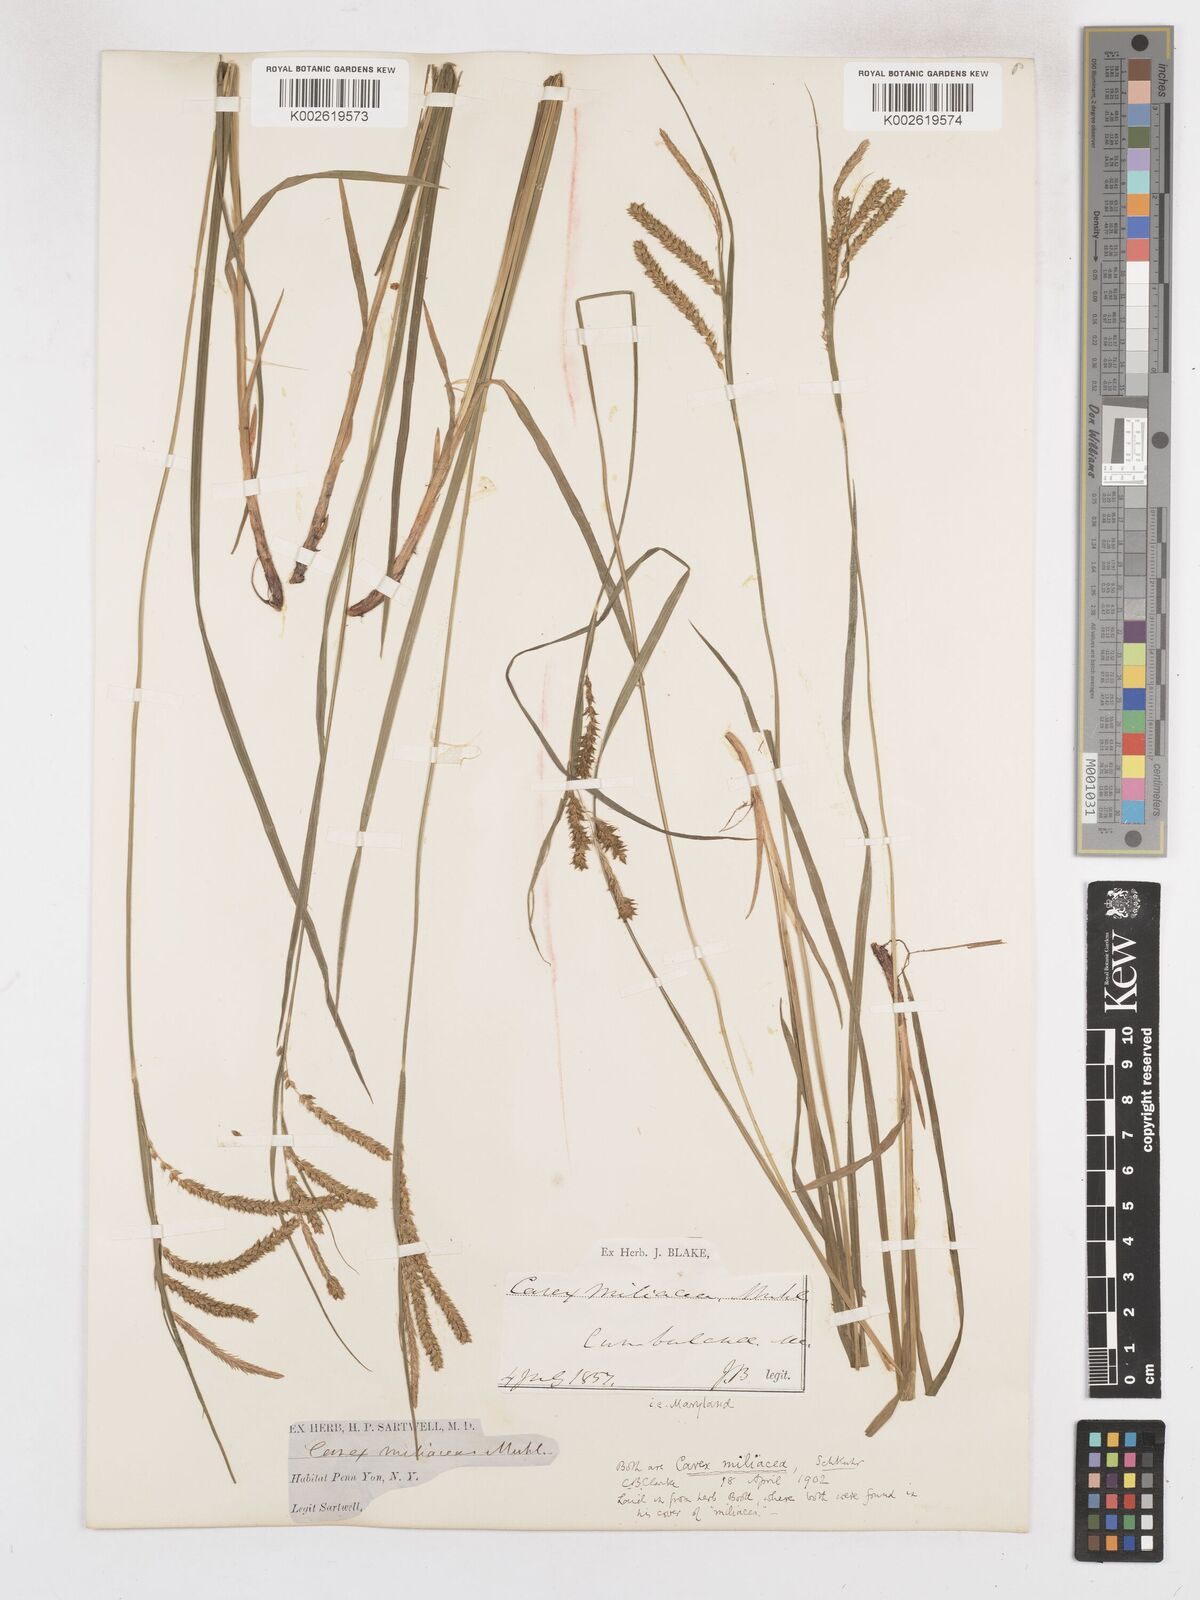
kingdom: Plantae
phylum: Tracheophyta
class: Liliopsida
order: Poales
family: Cyperaceae
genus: Carex
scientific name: Carex prasina
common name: Drooping sedge
